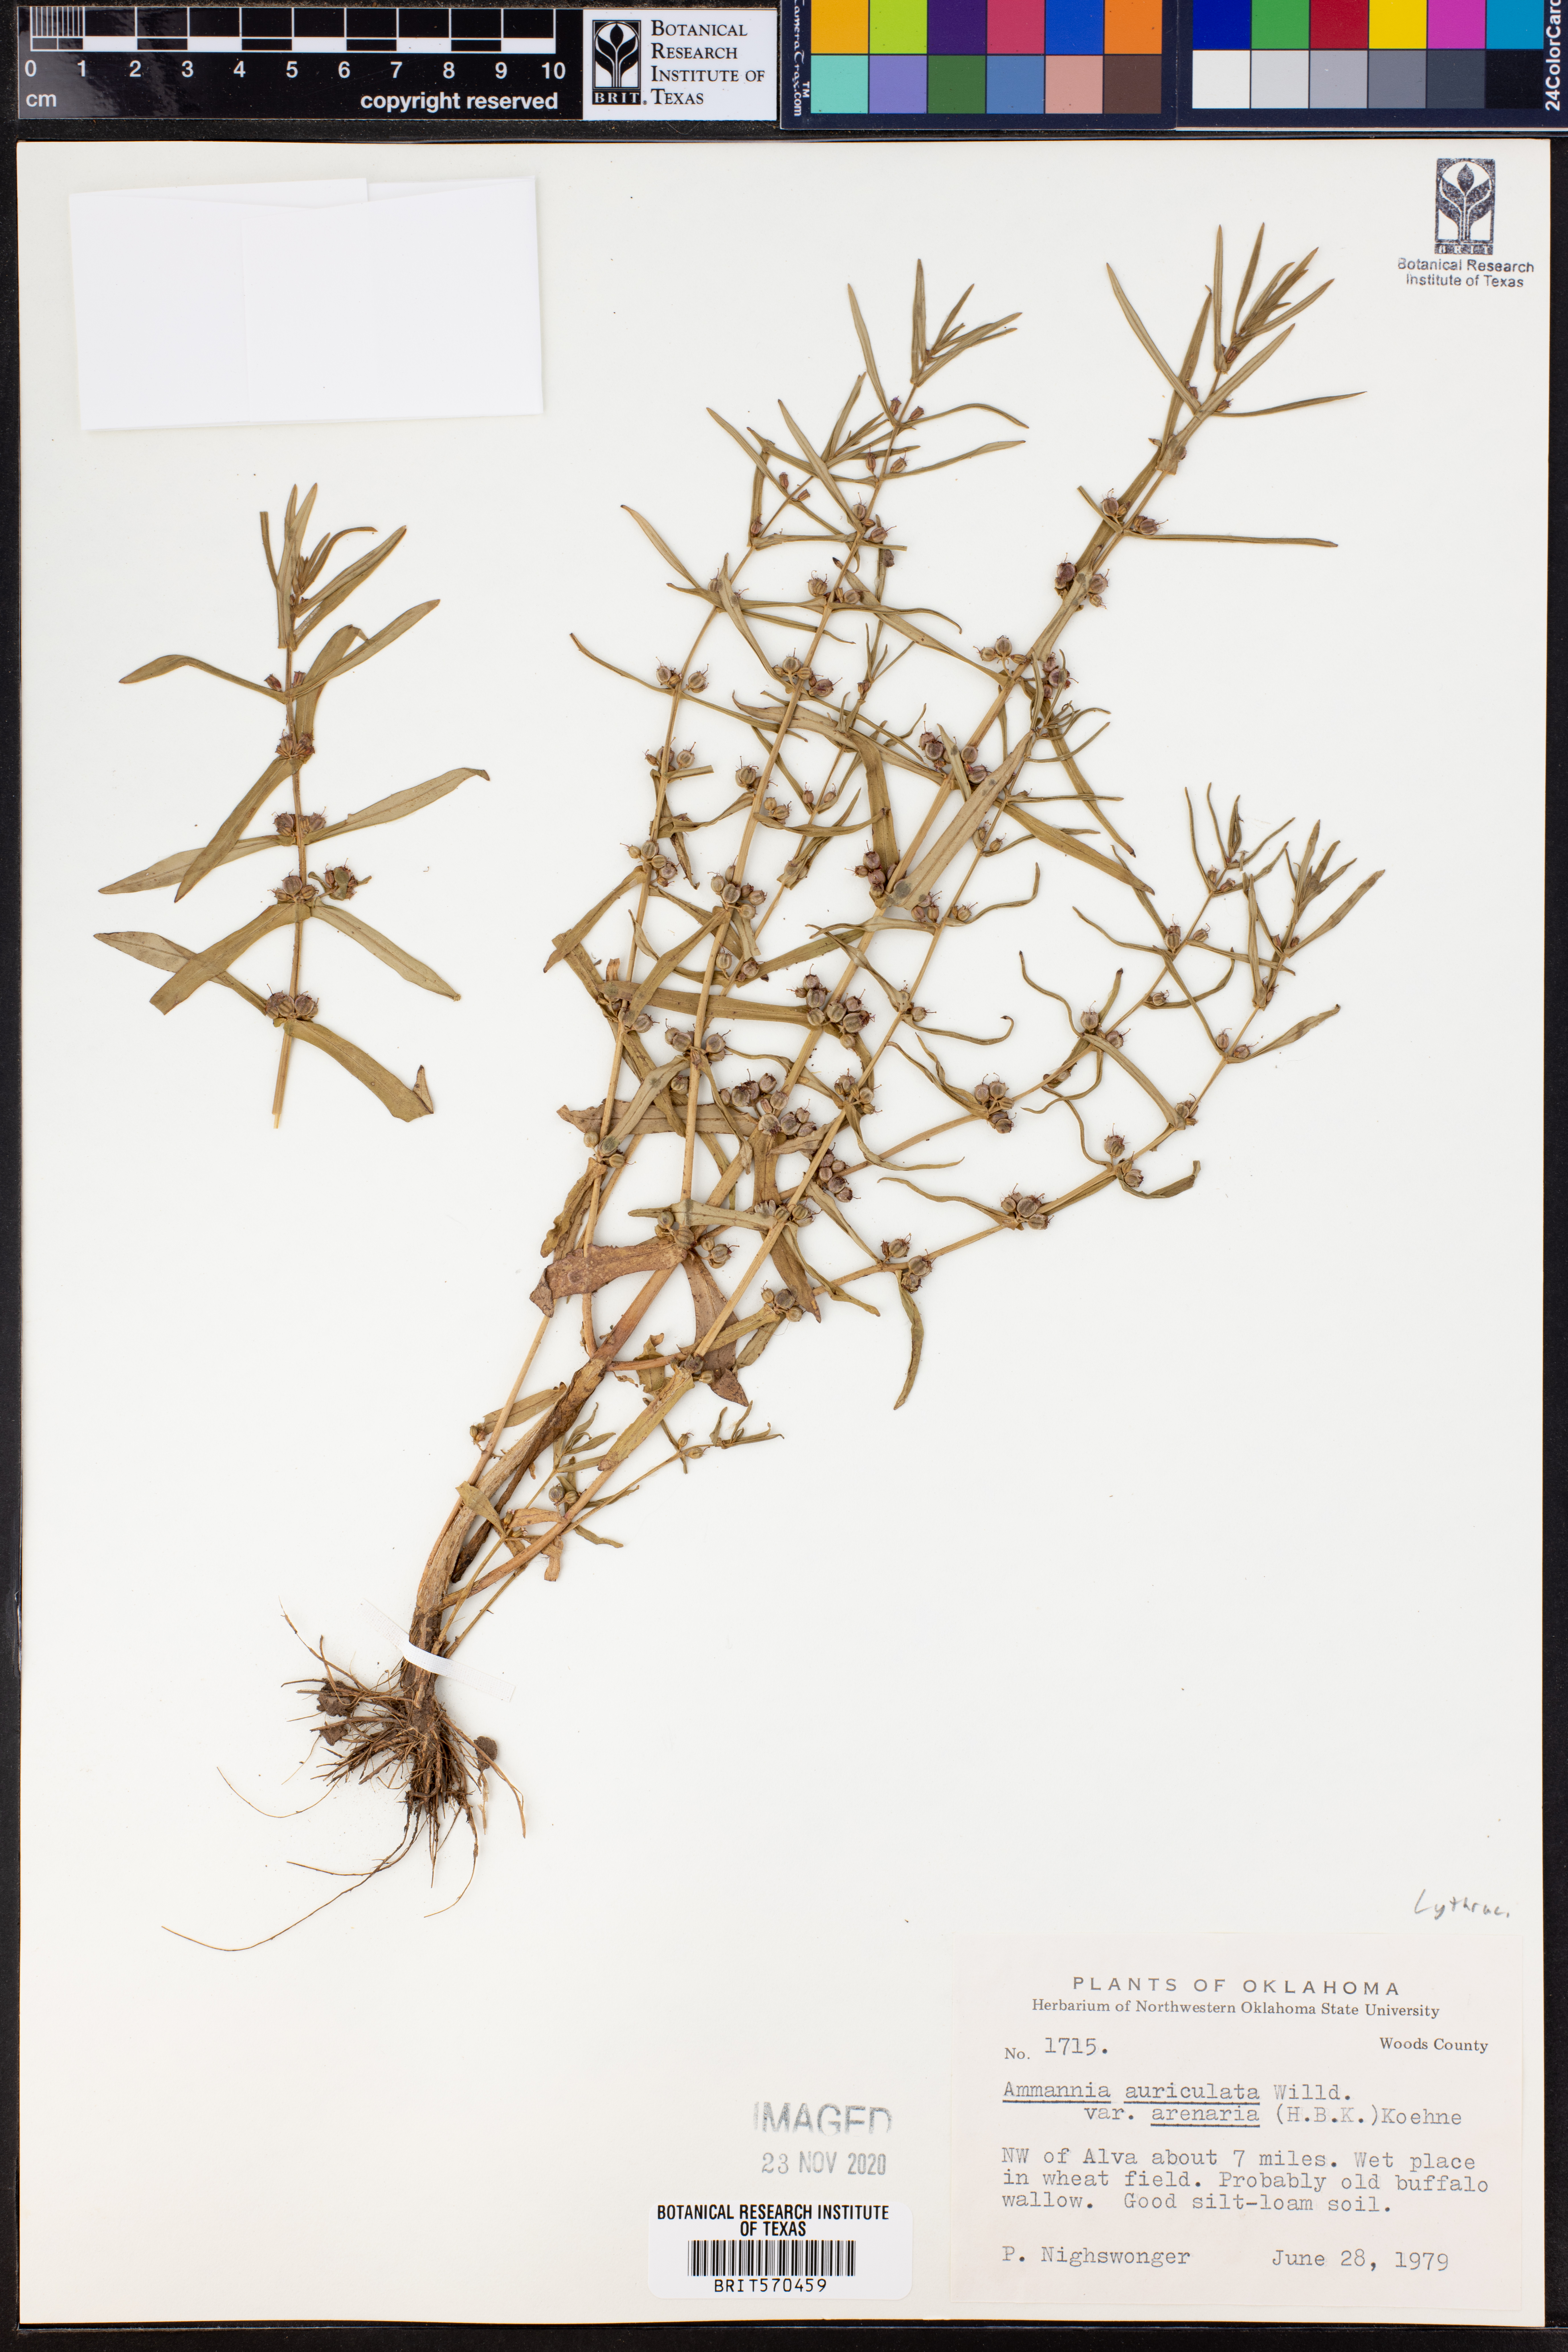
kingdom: Plantae
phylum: Tracheophyta
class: Magnoliopsida
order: Myrtales
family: Lythraceae
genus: Ammannia
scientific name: Ammannia auriculata
